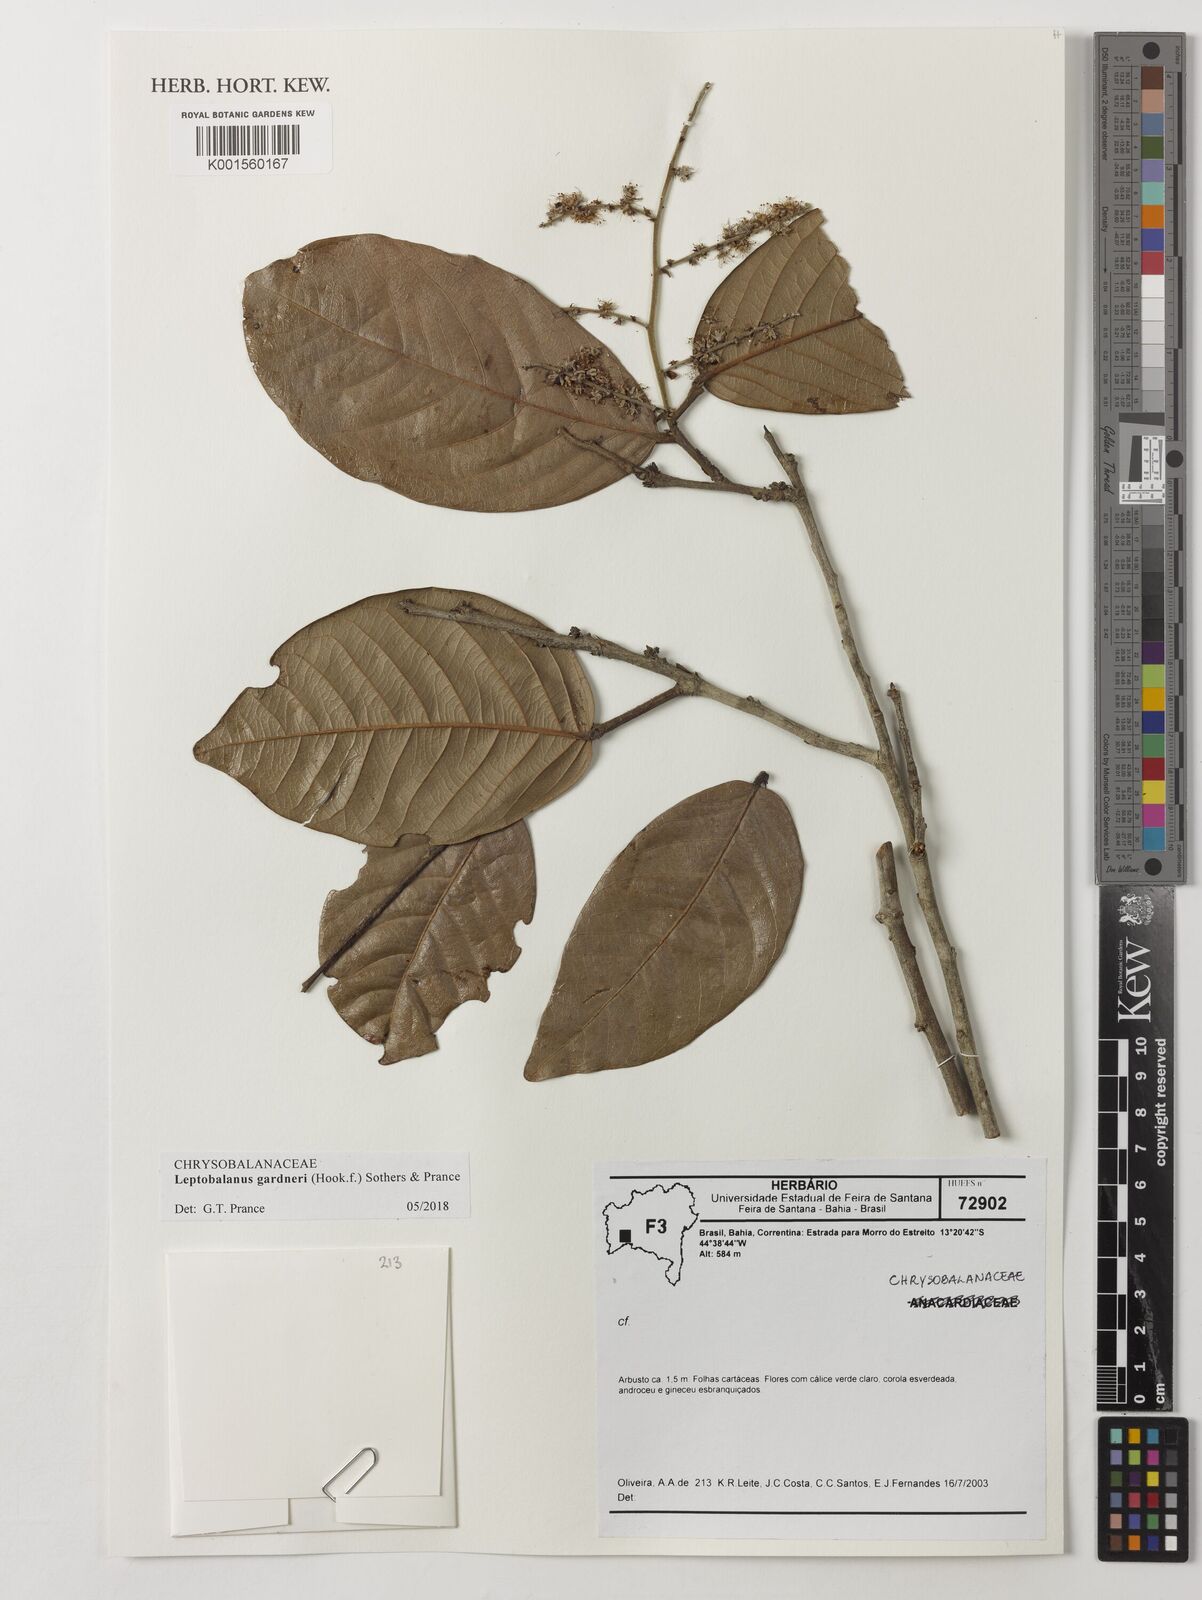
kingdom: Plantae
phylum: Tracheophyta
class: Magnoliopsida
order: Malpighiales
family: Chrysobalanaceae
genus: Leptobalanus
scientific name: Leptobalanus gardneri
